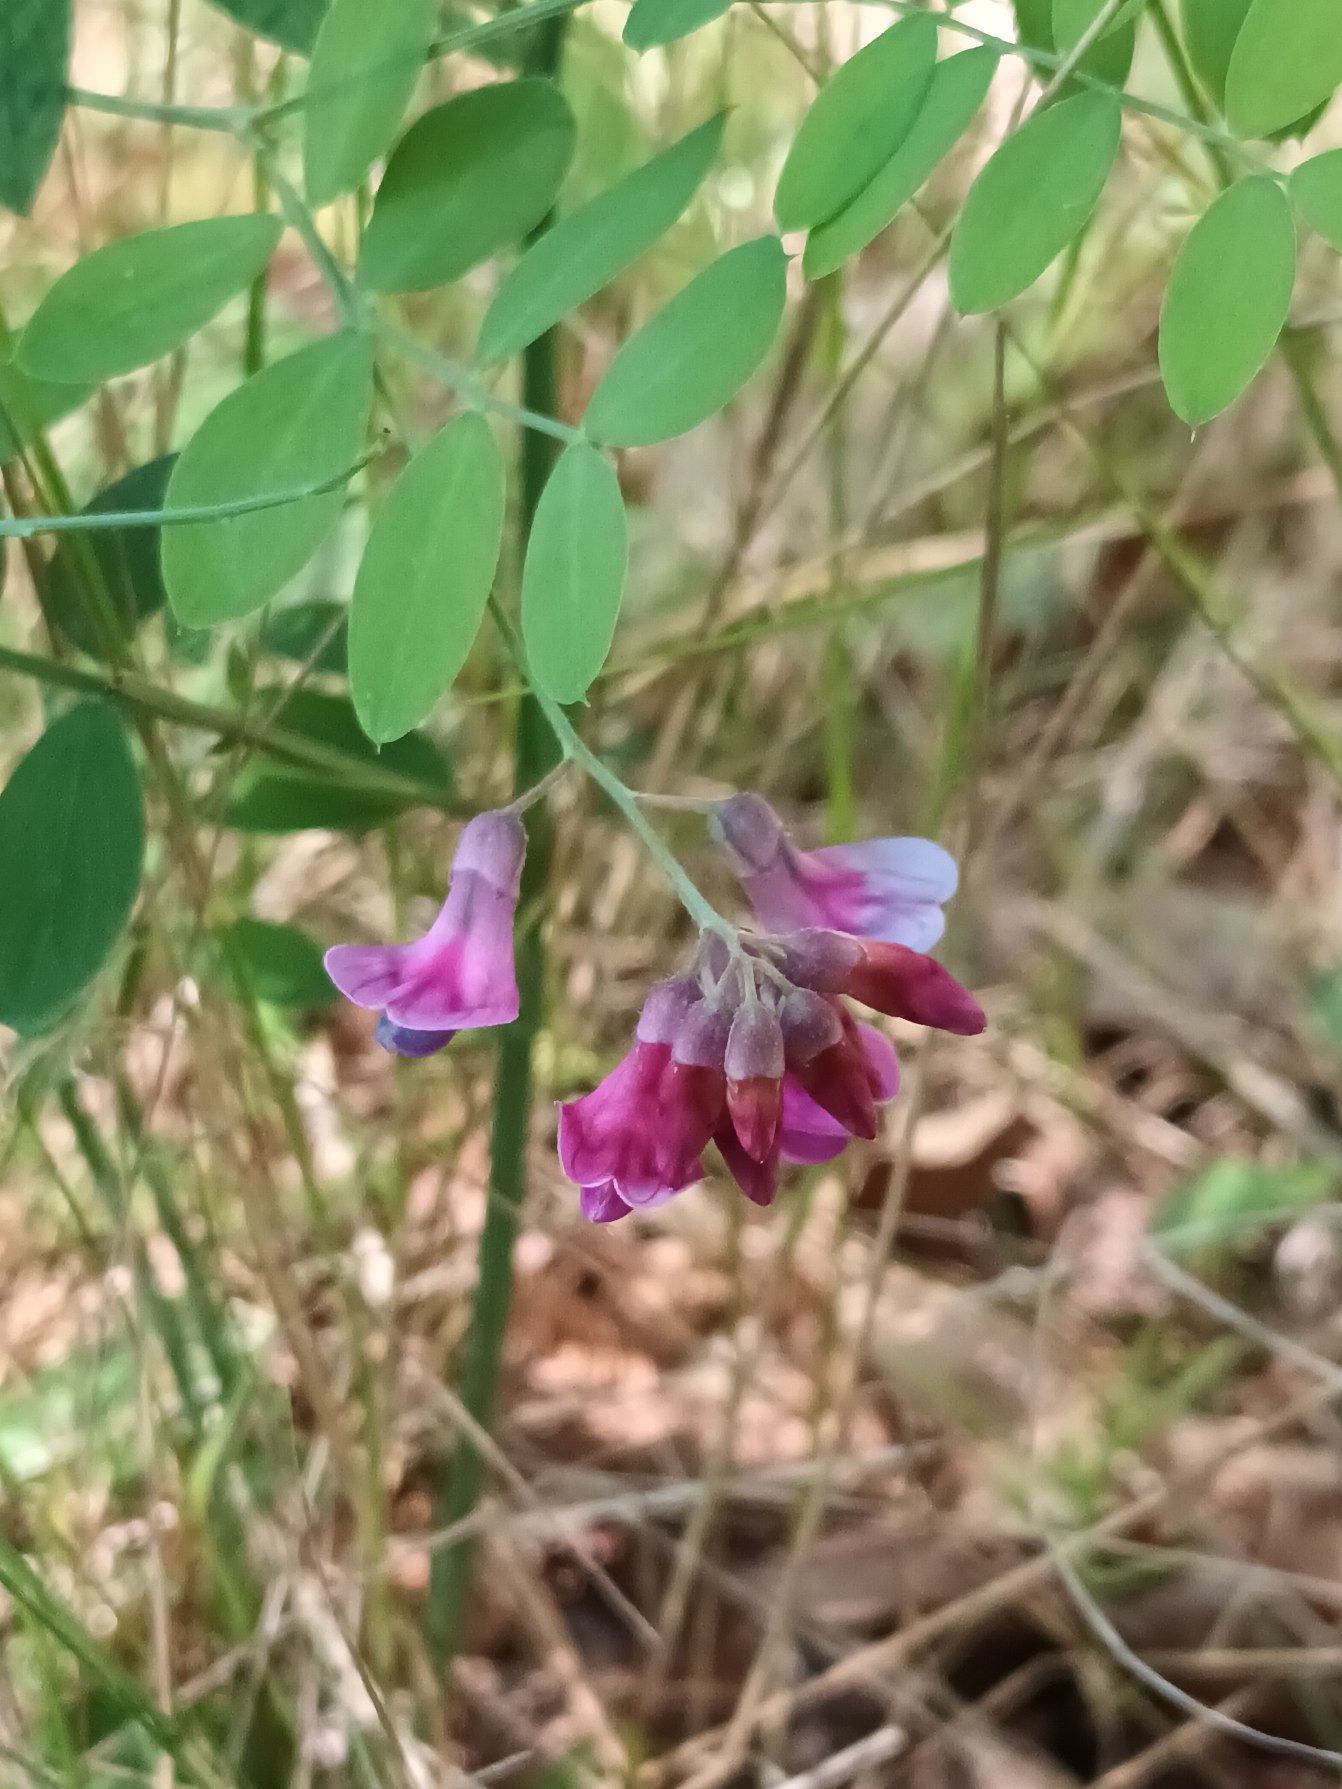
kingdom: Plantae
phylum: Tracheophyta
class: Magnoliopsida
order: Fabales
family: Fabaceae
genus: Lathyrus
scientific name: Lathyrus niger
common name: Sort fladbælg
